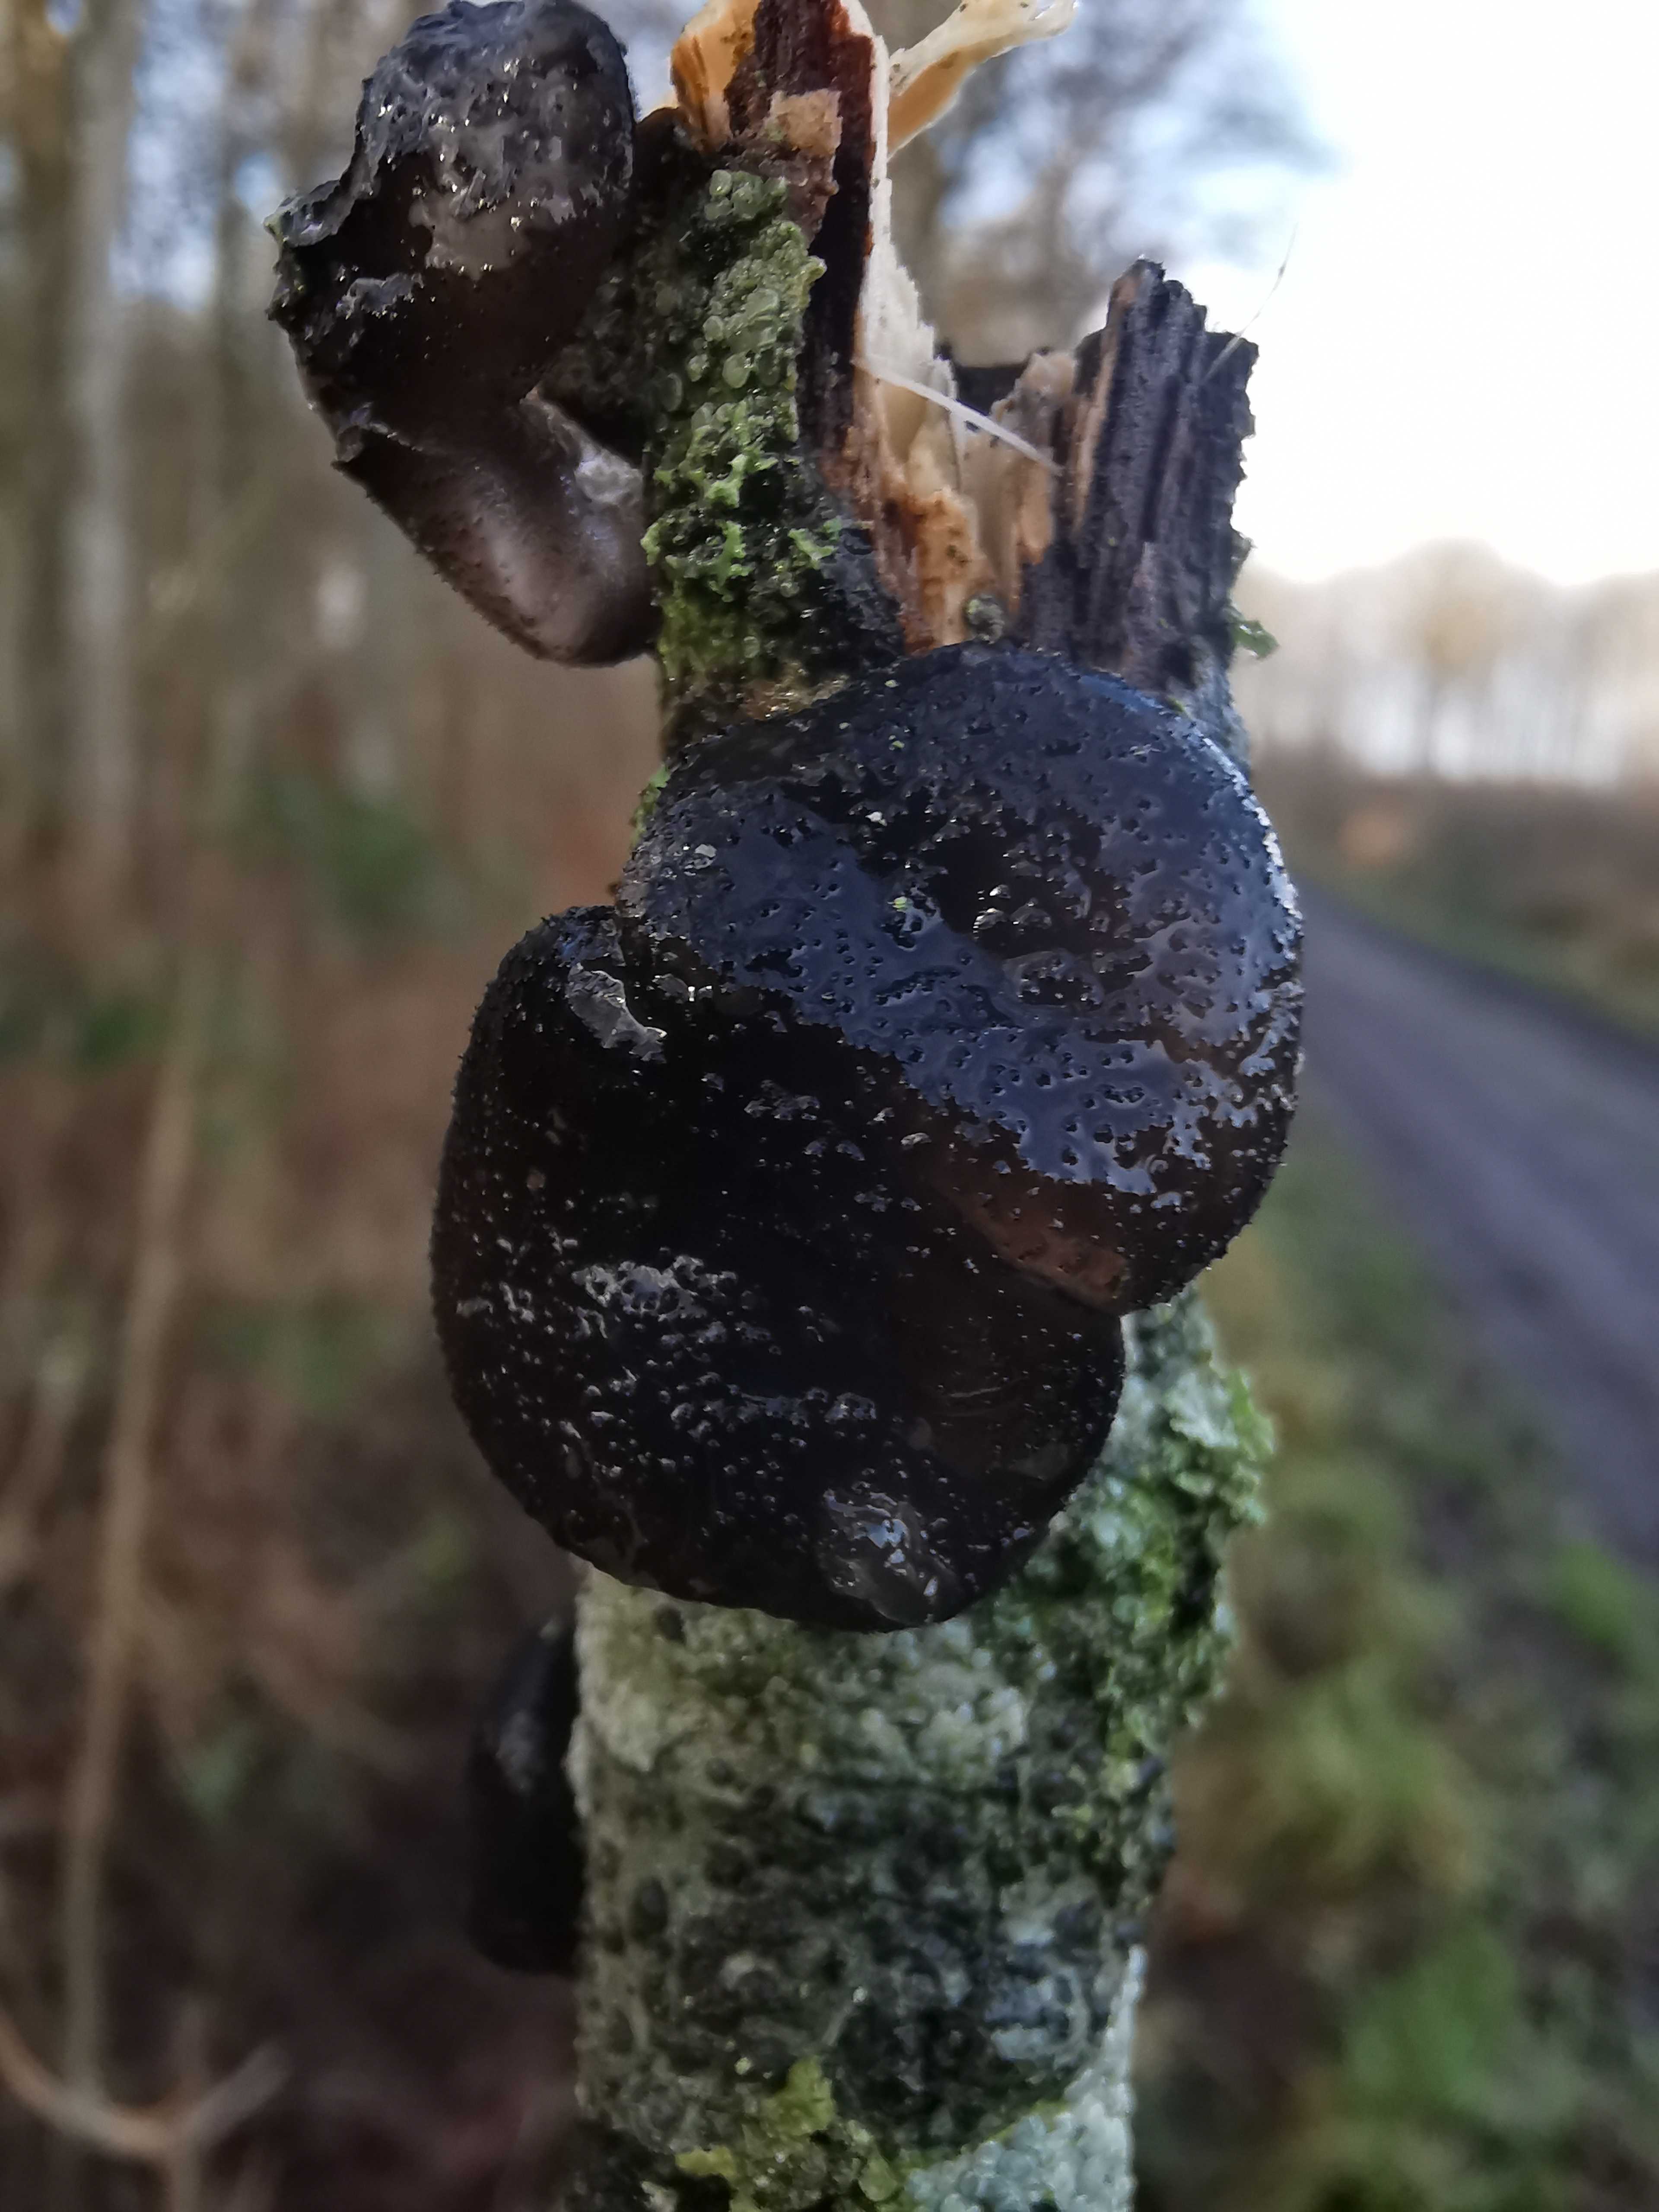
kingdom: Fungi
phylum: Basidiomycota
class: Agaricomycetes
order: Auriculariales
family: Auriculariaceae
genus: Exidia
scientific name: Exidia glandulosa
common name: ege-bævretop
